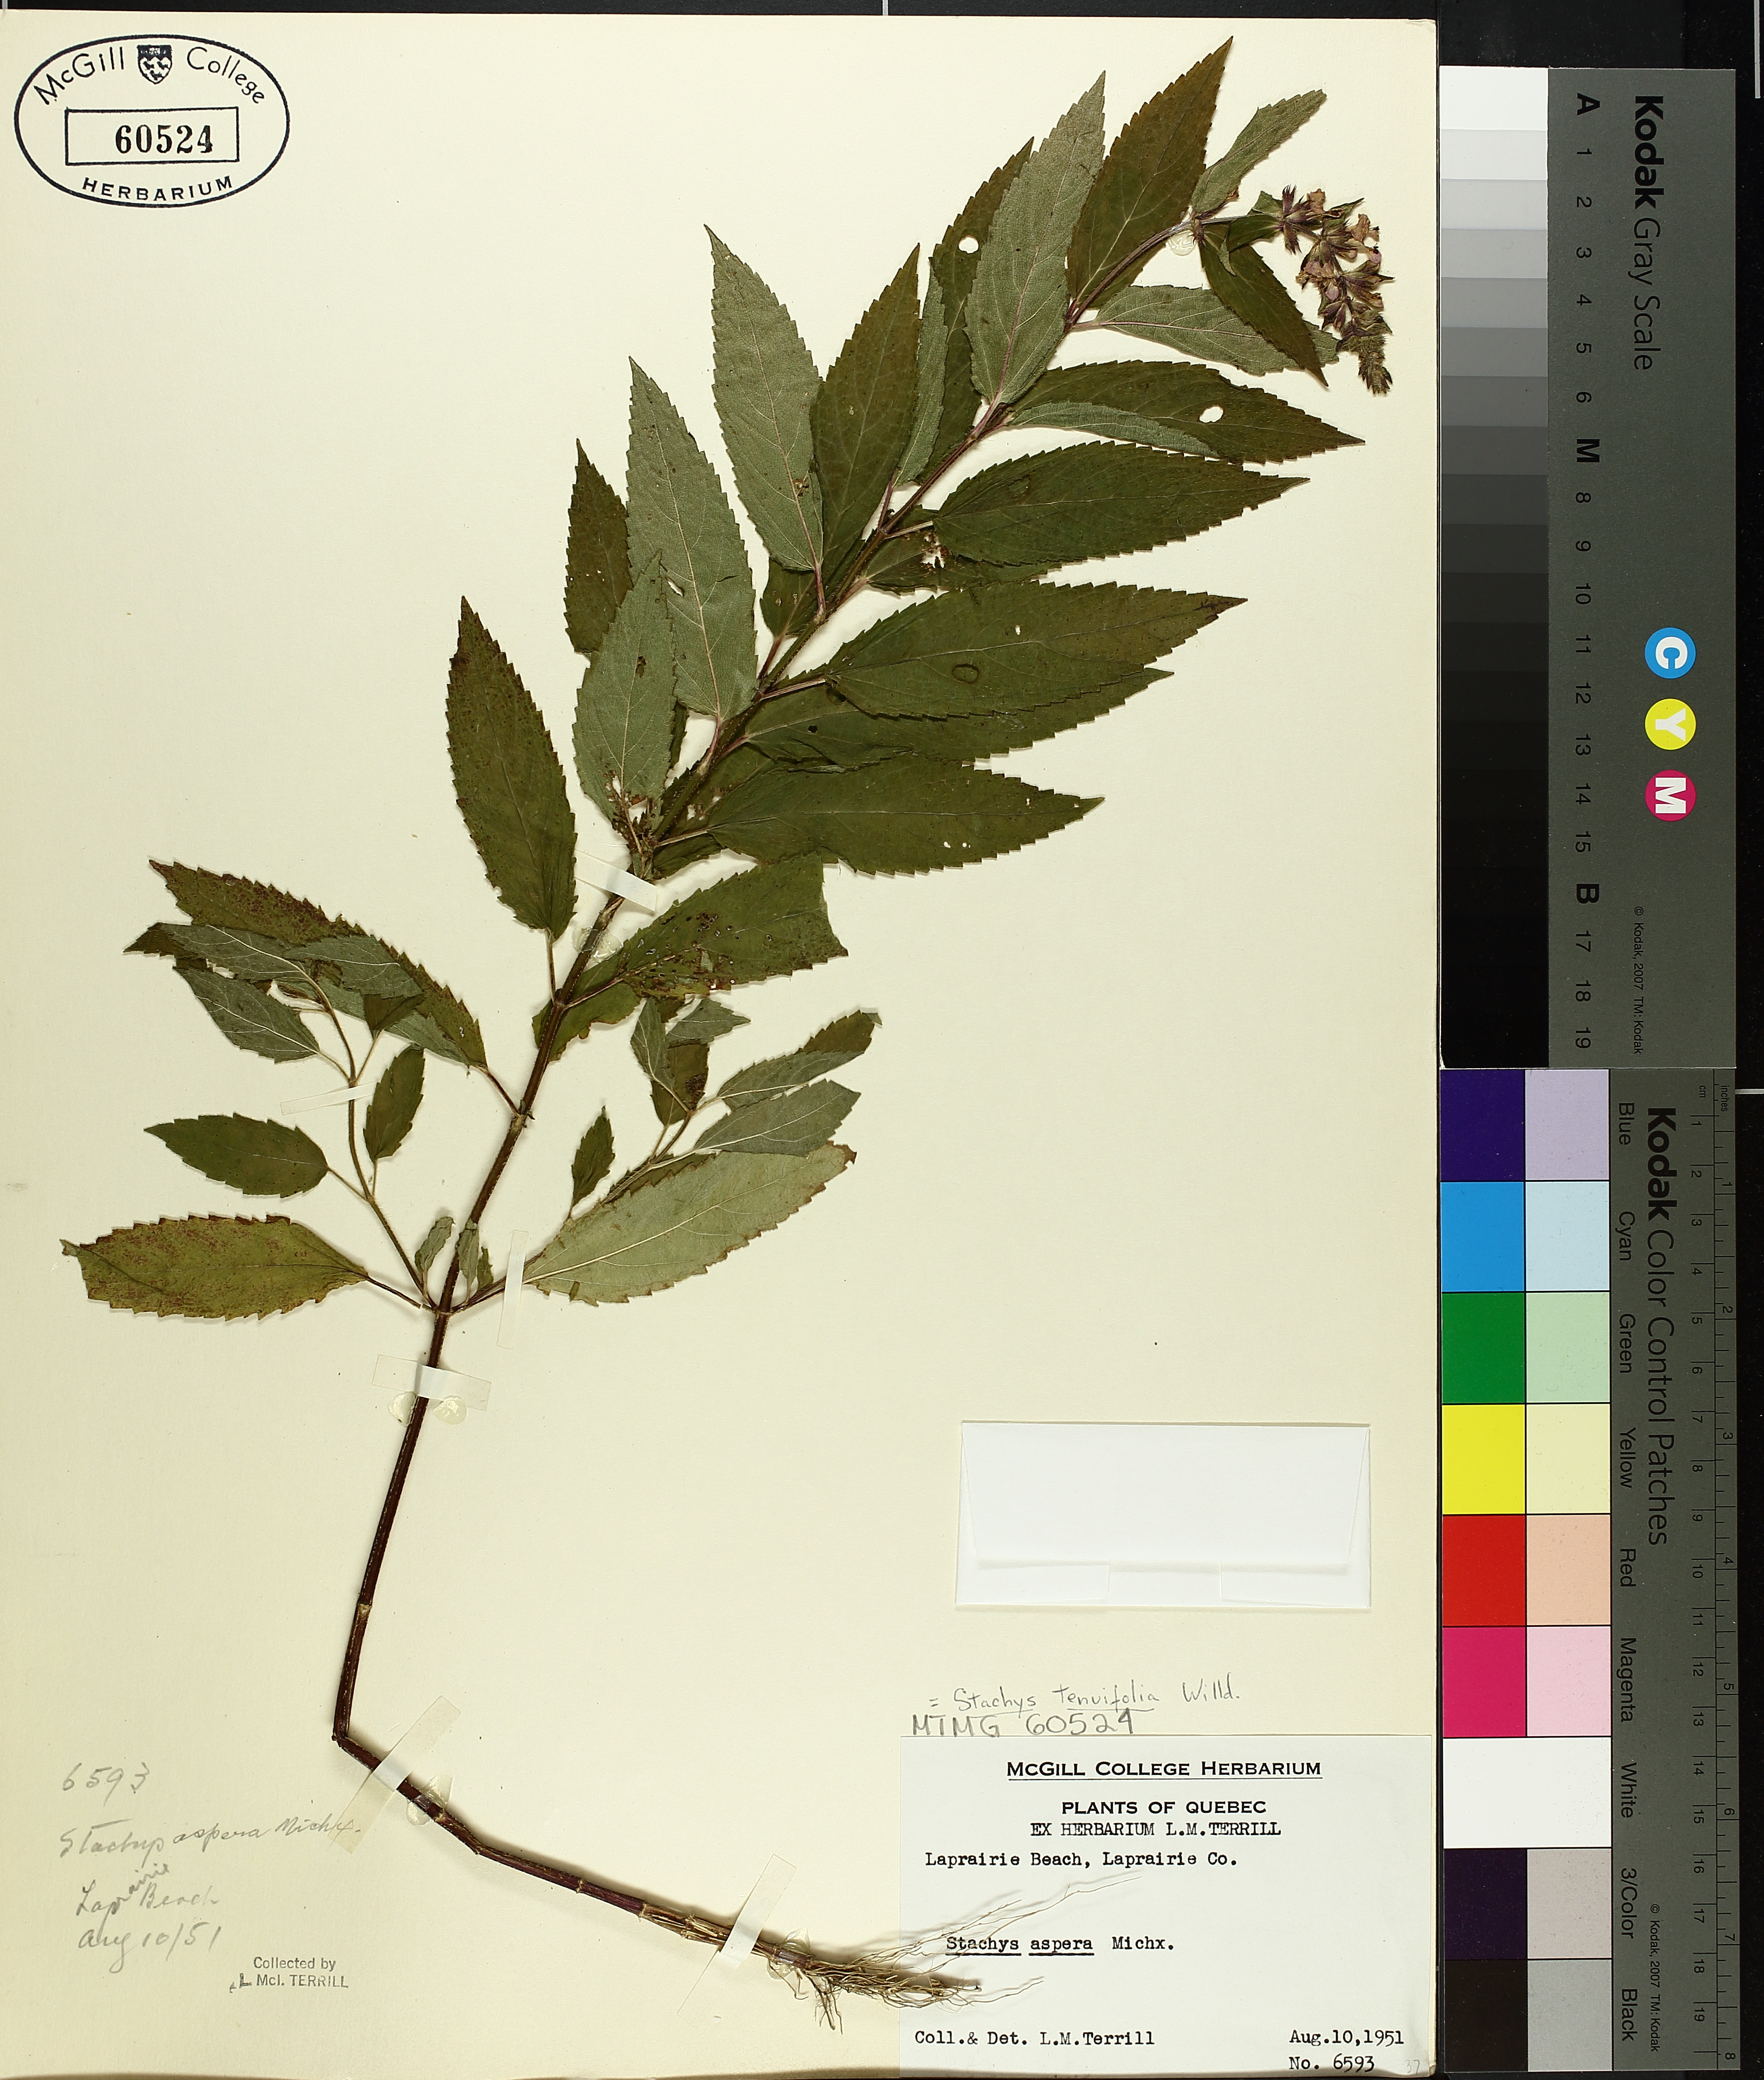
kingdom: Plantae
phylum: Tracheophyta
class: Magnoliopsida
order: Lamiales
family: Lamiaceae
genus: Stachys
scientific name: Stachys tenuifolia
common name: Smooth hedge-nettle
